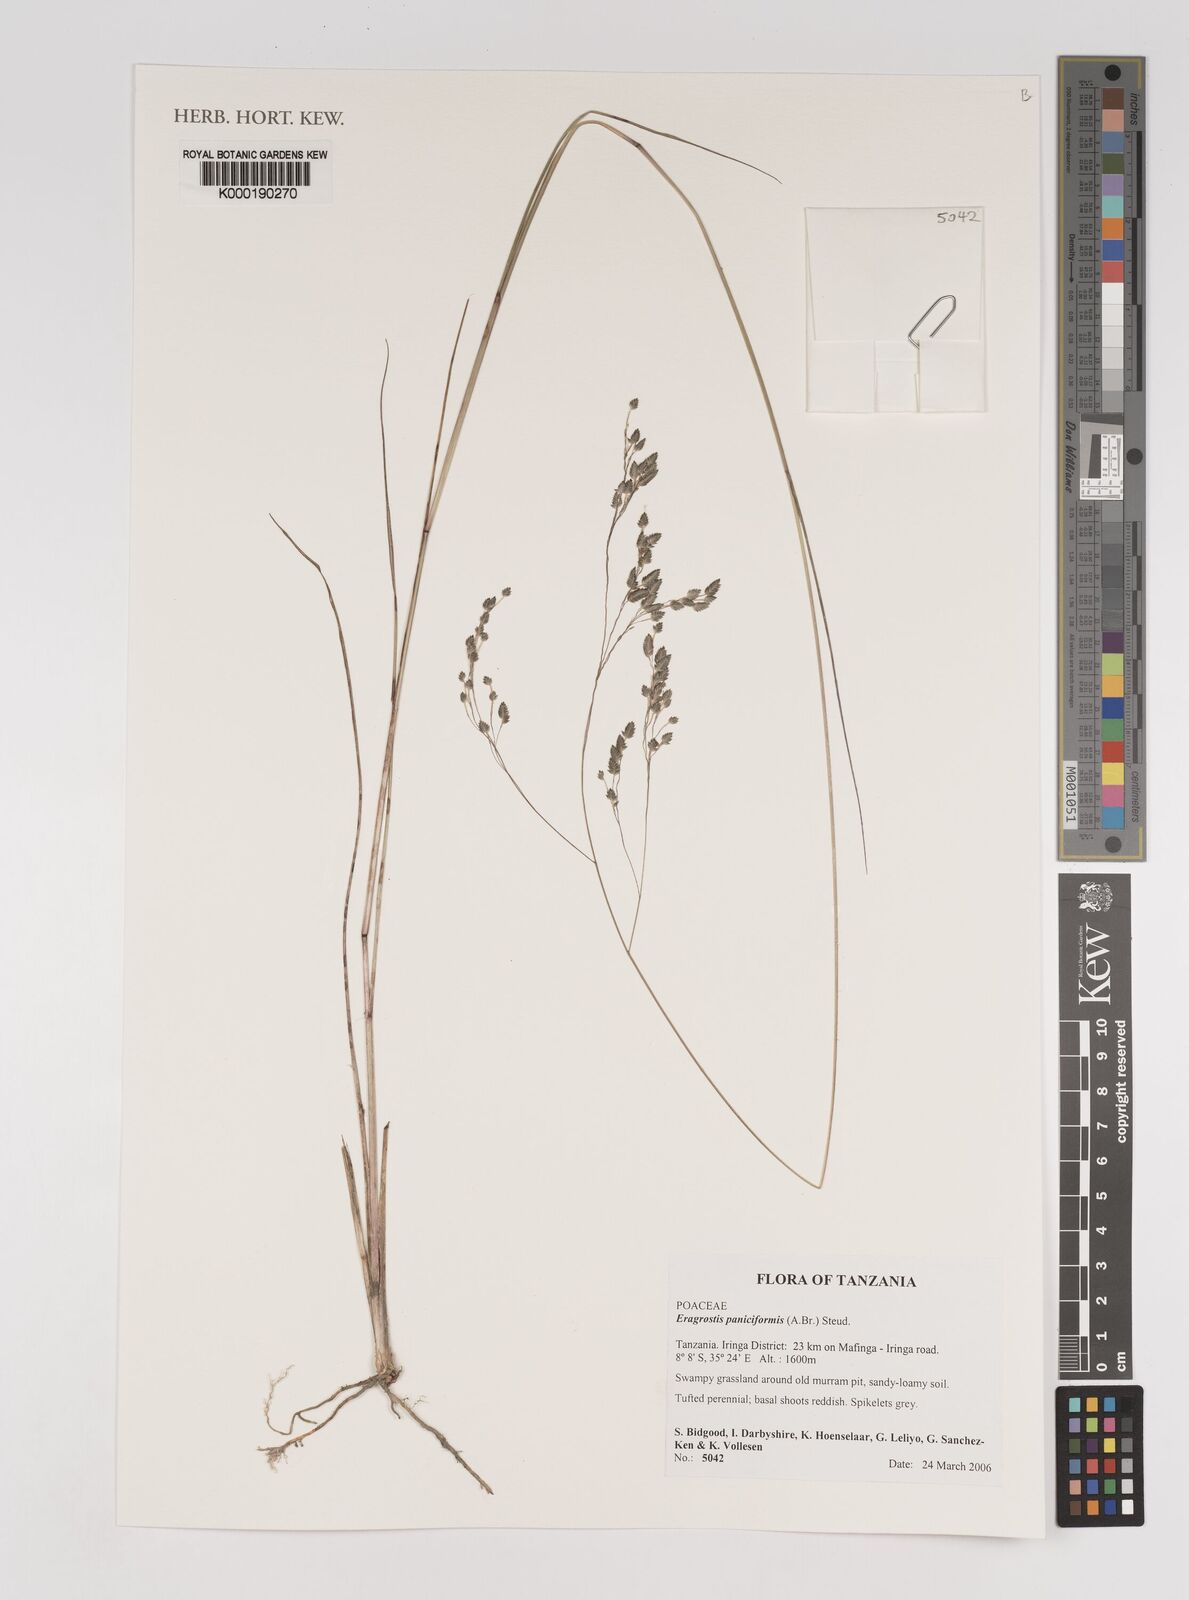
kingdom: Plantae
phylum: Tracheophyta
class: Liliopsida
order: Poales
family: Poaceae
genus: Eragrostis
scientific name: Eragrostis paniciformis
